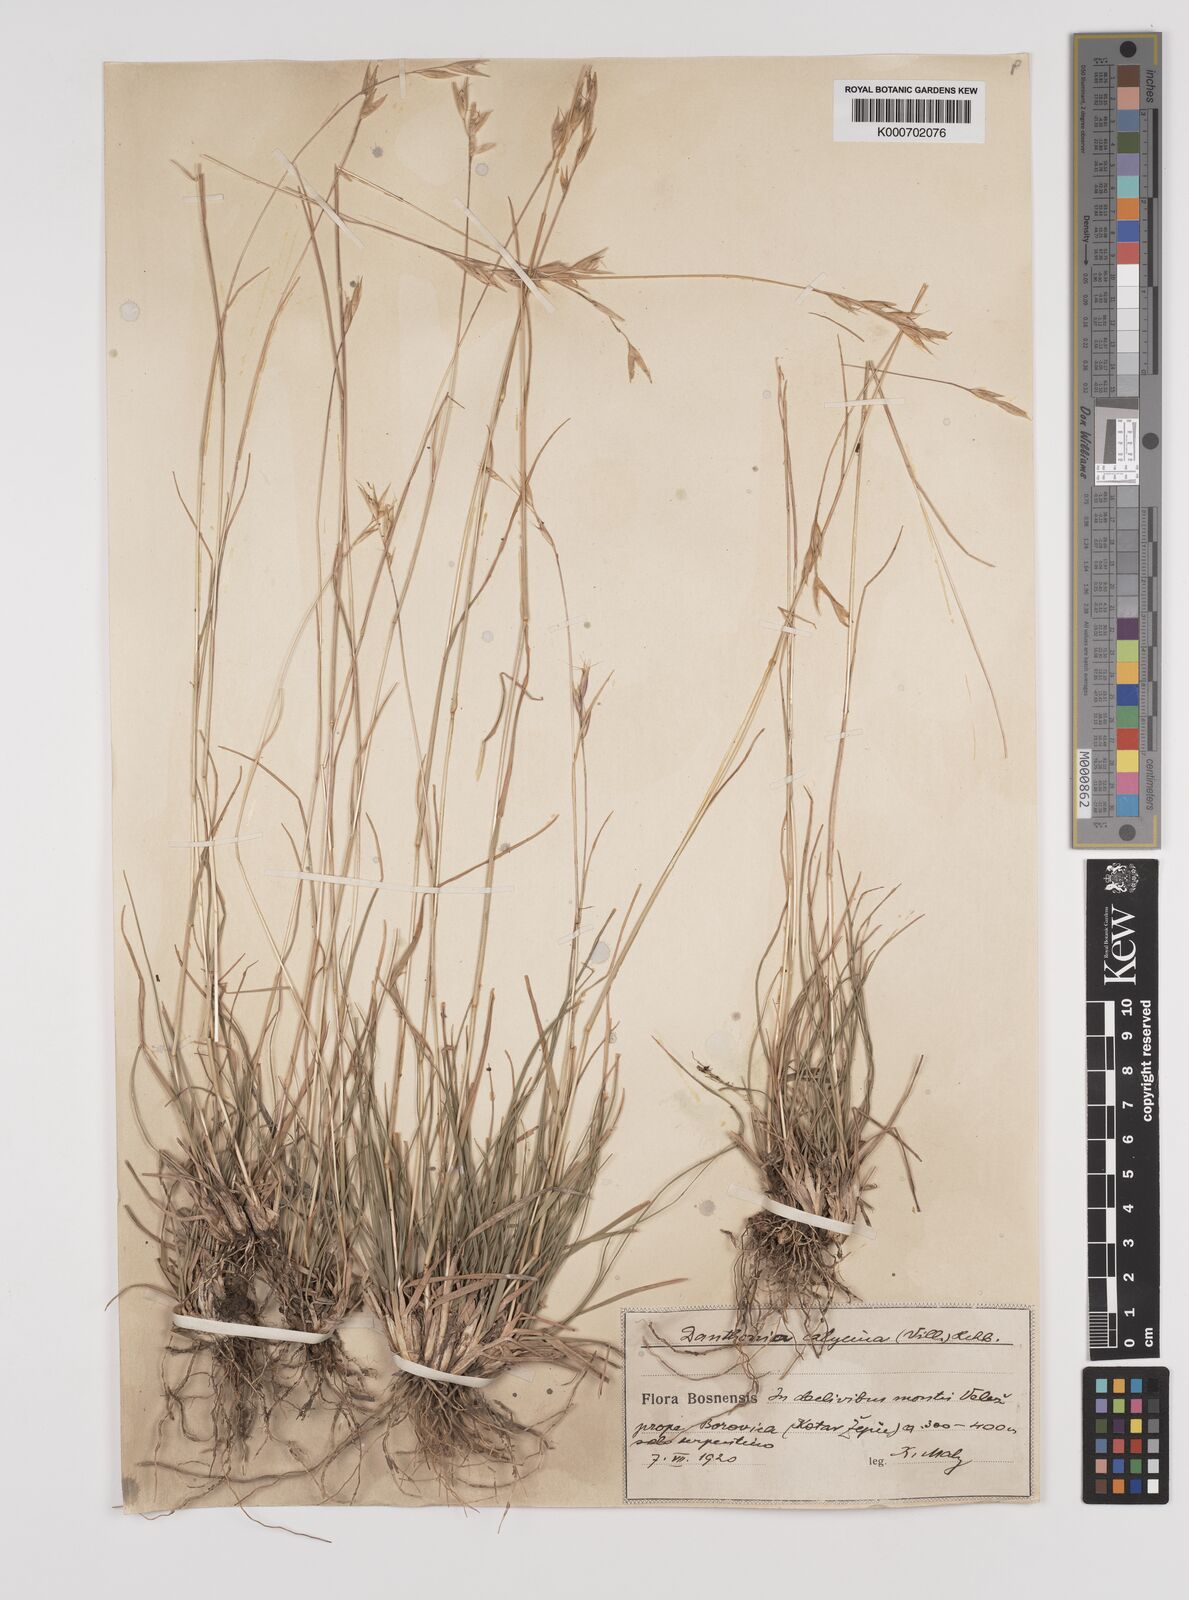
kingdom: Plantae
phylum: Tracheophyta
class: Liliopsida
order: Poales
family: Poaceae
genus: Danthonia
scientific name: Danthonia alpina
